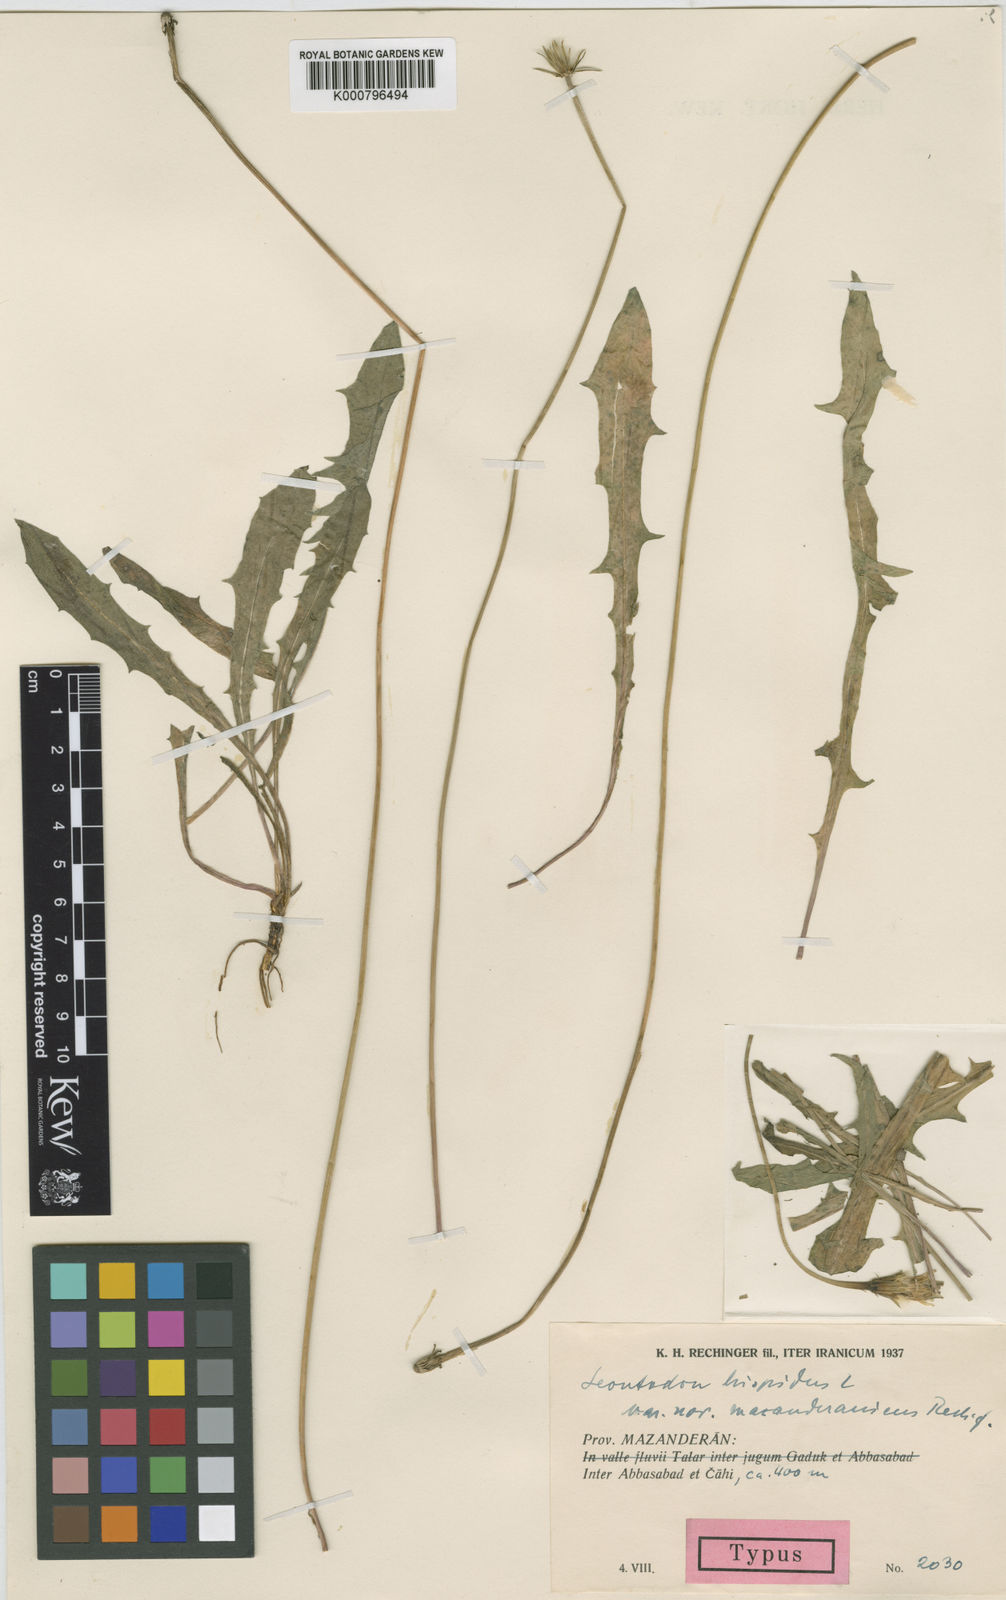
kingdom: Plantae
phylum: Tracheophyta
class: Magnoliopsida
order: Asterales
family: Asteraceae
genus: Leontodon
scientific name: Leontodon hispidus
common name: Rough hawkbit
